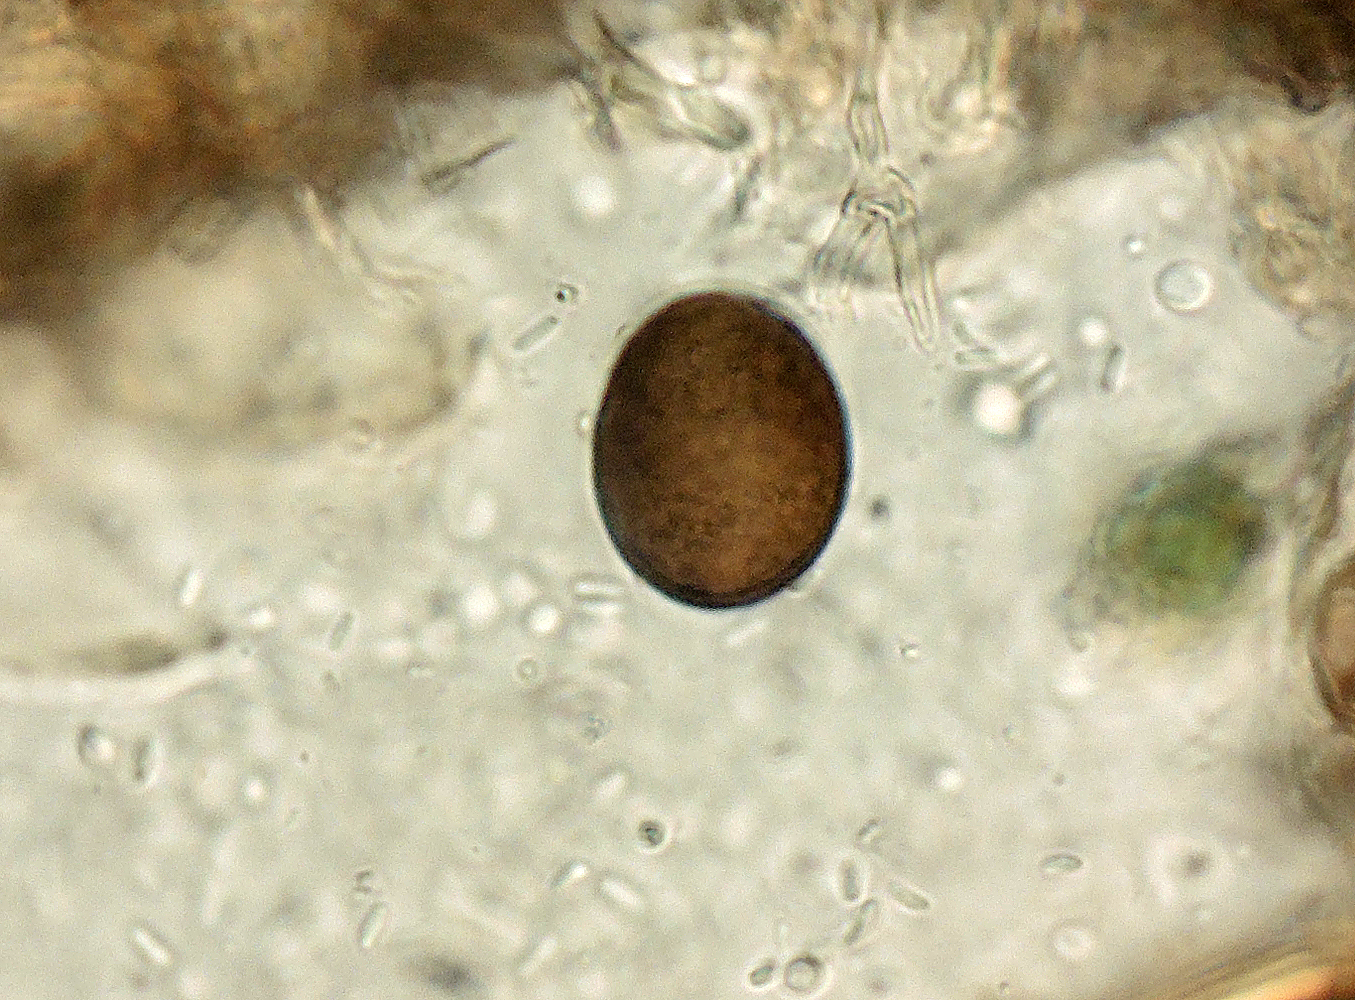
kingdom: Fungi
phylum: Ascomycota
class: Sordariomycetes
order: Diaporthales
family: Gnomoniaceae
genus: Cryptosporella
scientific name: Cryptosporella hypodermia
